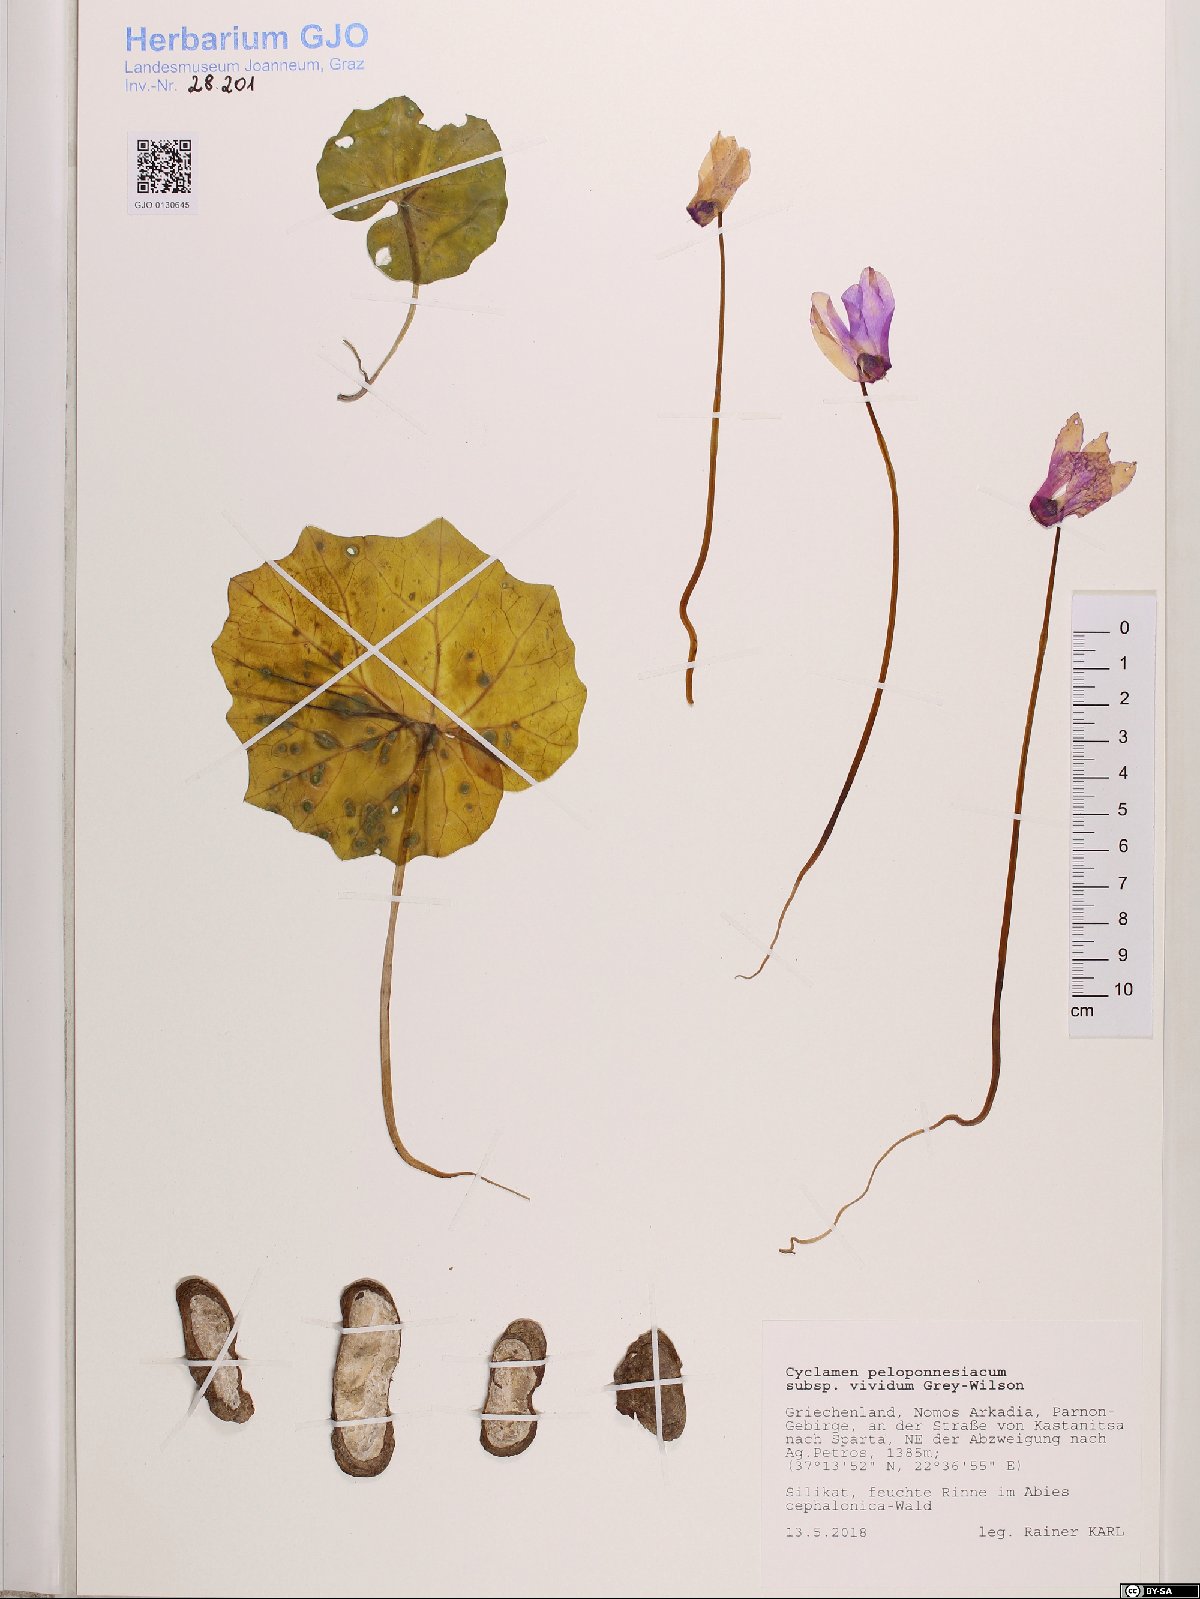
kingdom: Plantae
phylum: Tracheophyta
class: Magnoliopsida
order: Ericales
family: Primulaceae
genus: Cyclamen
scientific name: Cyclamen repandum
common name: Spring sowbread
